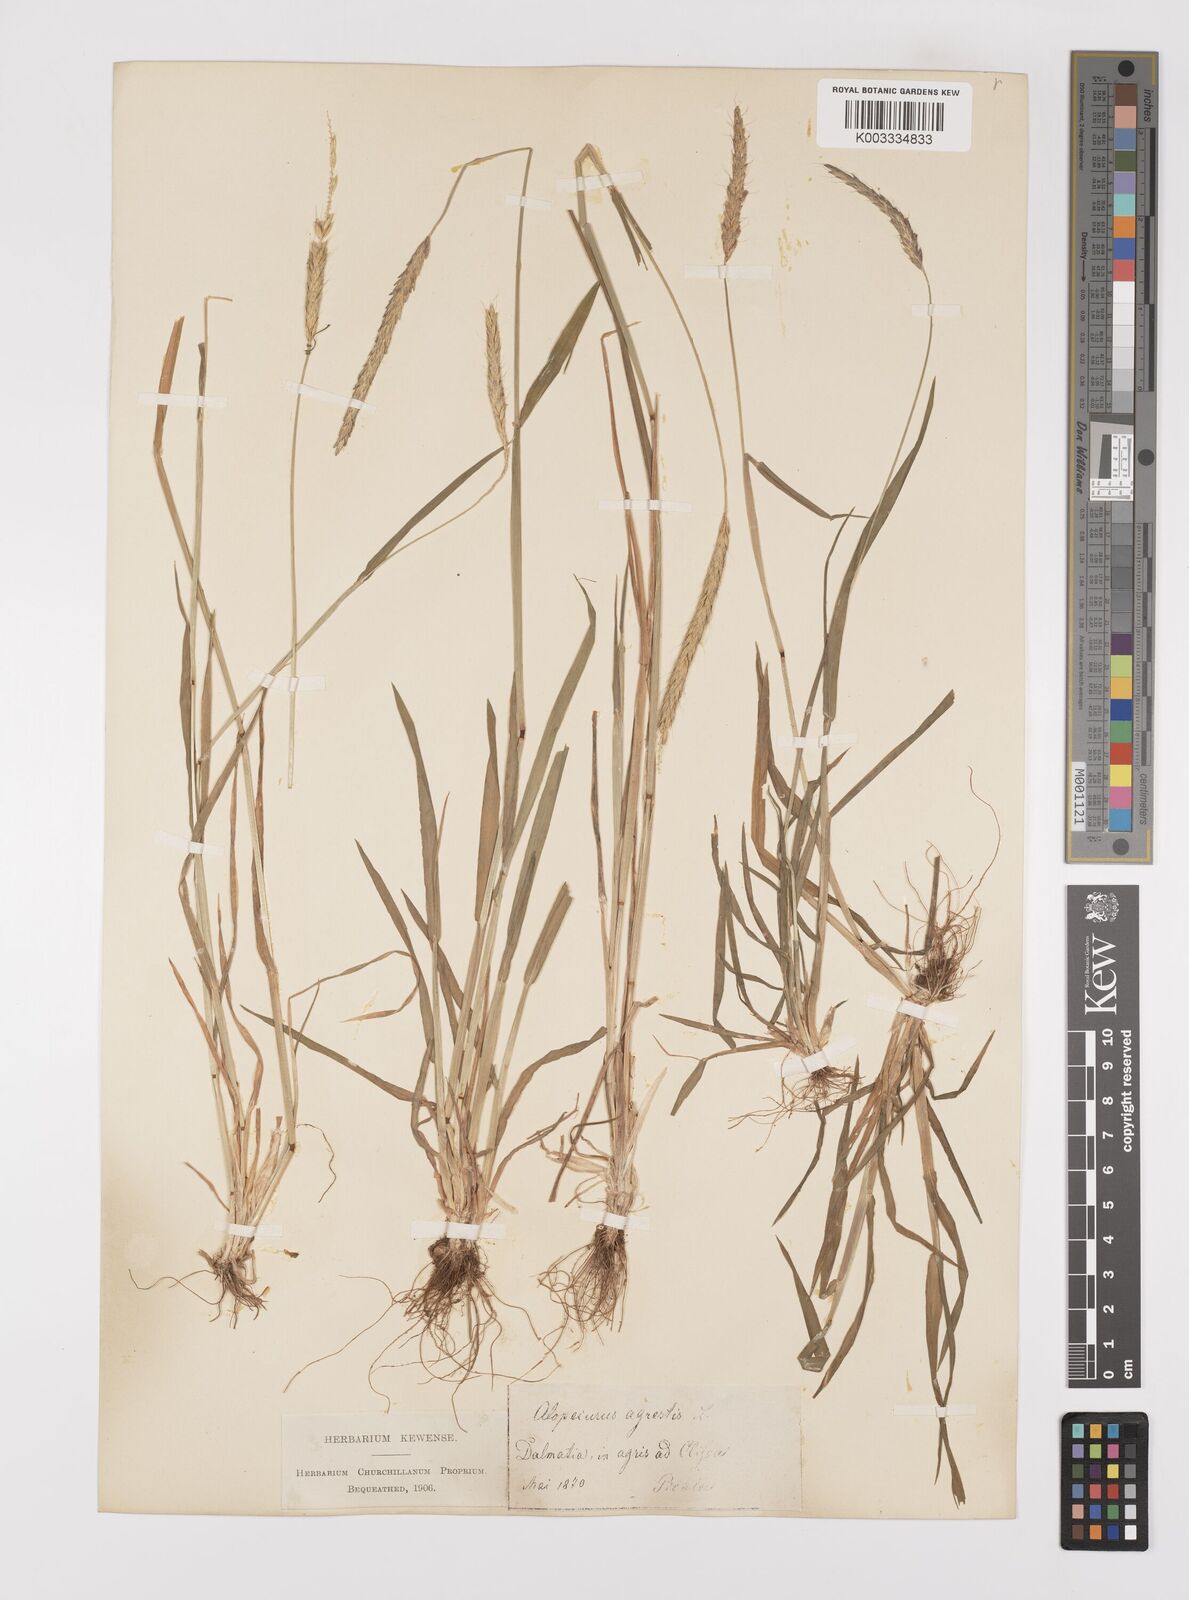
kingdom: Plantae
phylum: Tracheophyta
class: Liliopsida
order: Poales
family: Poaceae
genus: Alopecurus
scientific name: Alopecurus myosuroides
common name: Black-grass
